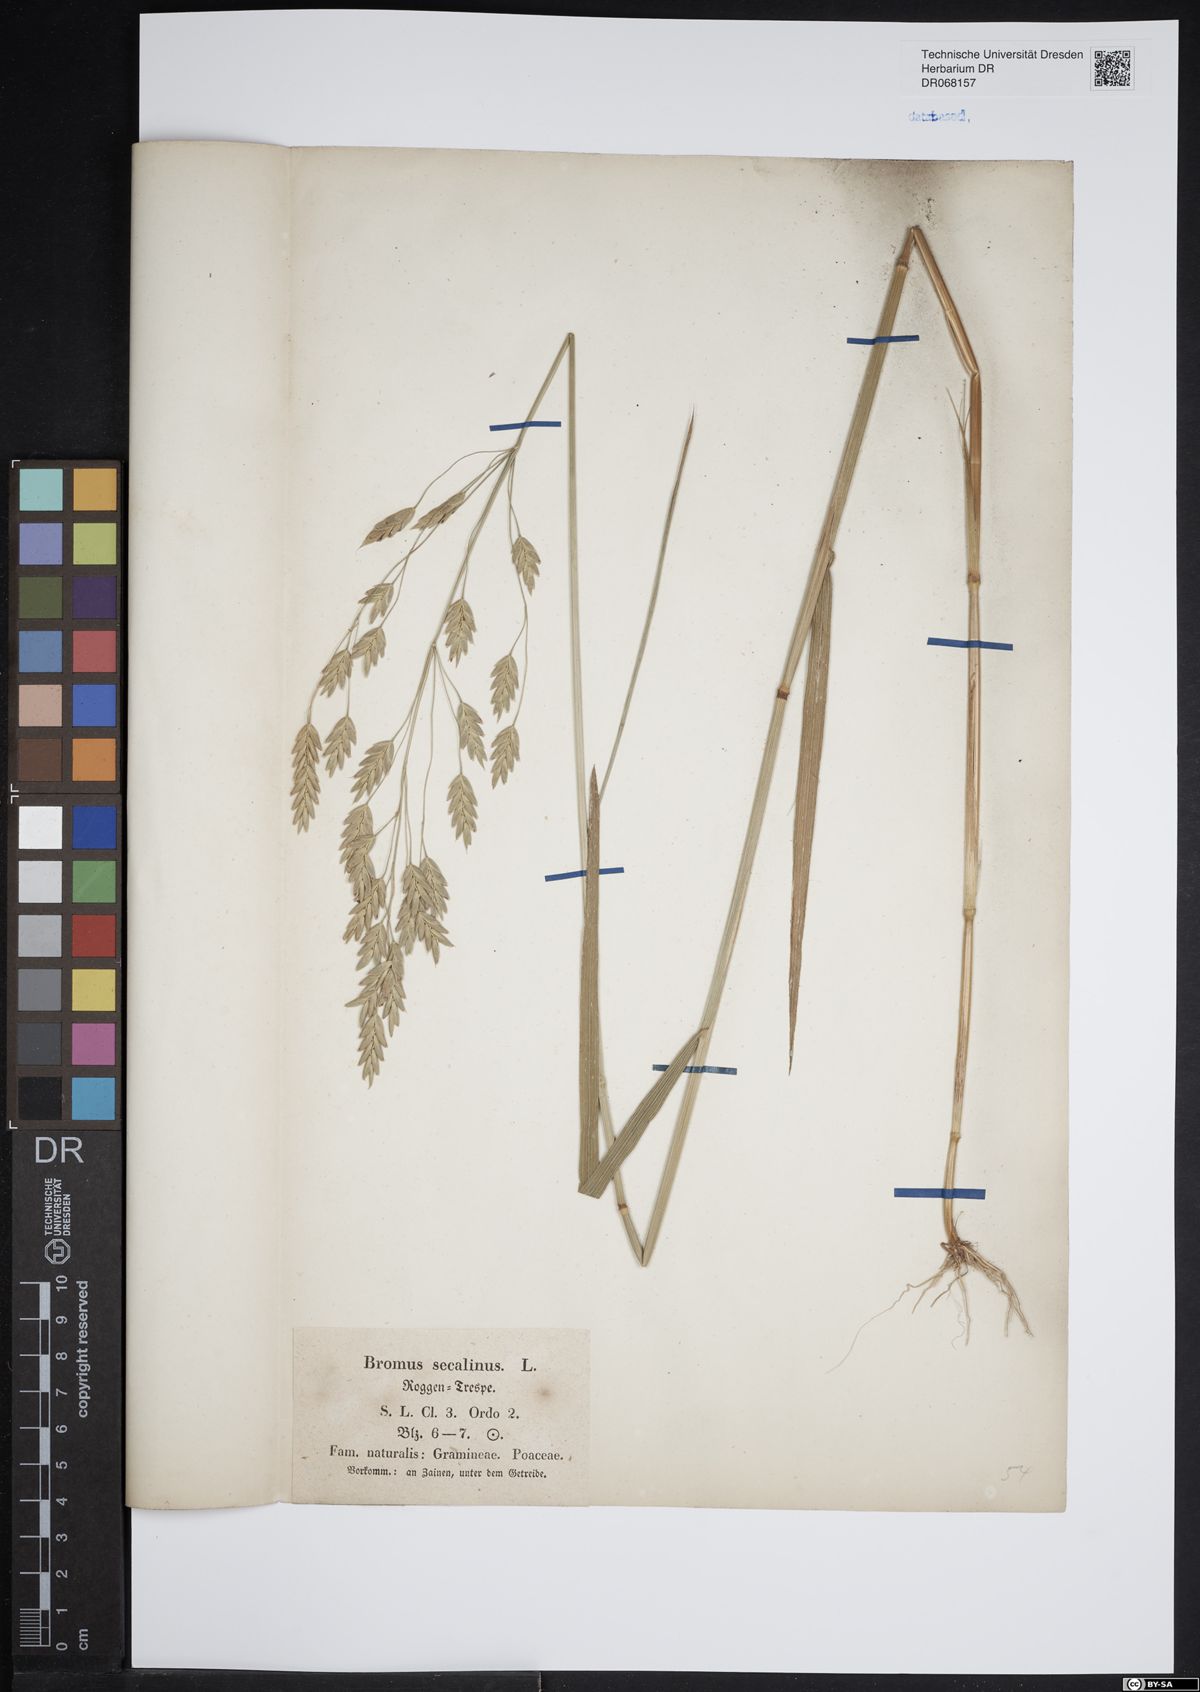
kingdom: Plantae
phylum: Tracheophyta
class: Liliopsida
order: Poales
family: Poaceae
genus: Bromus
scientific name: Bromus secalinus
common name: Rye brome
